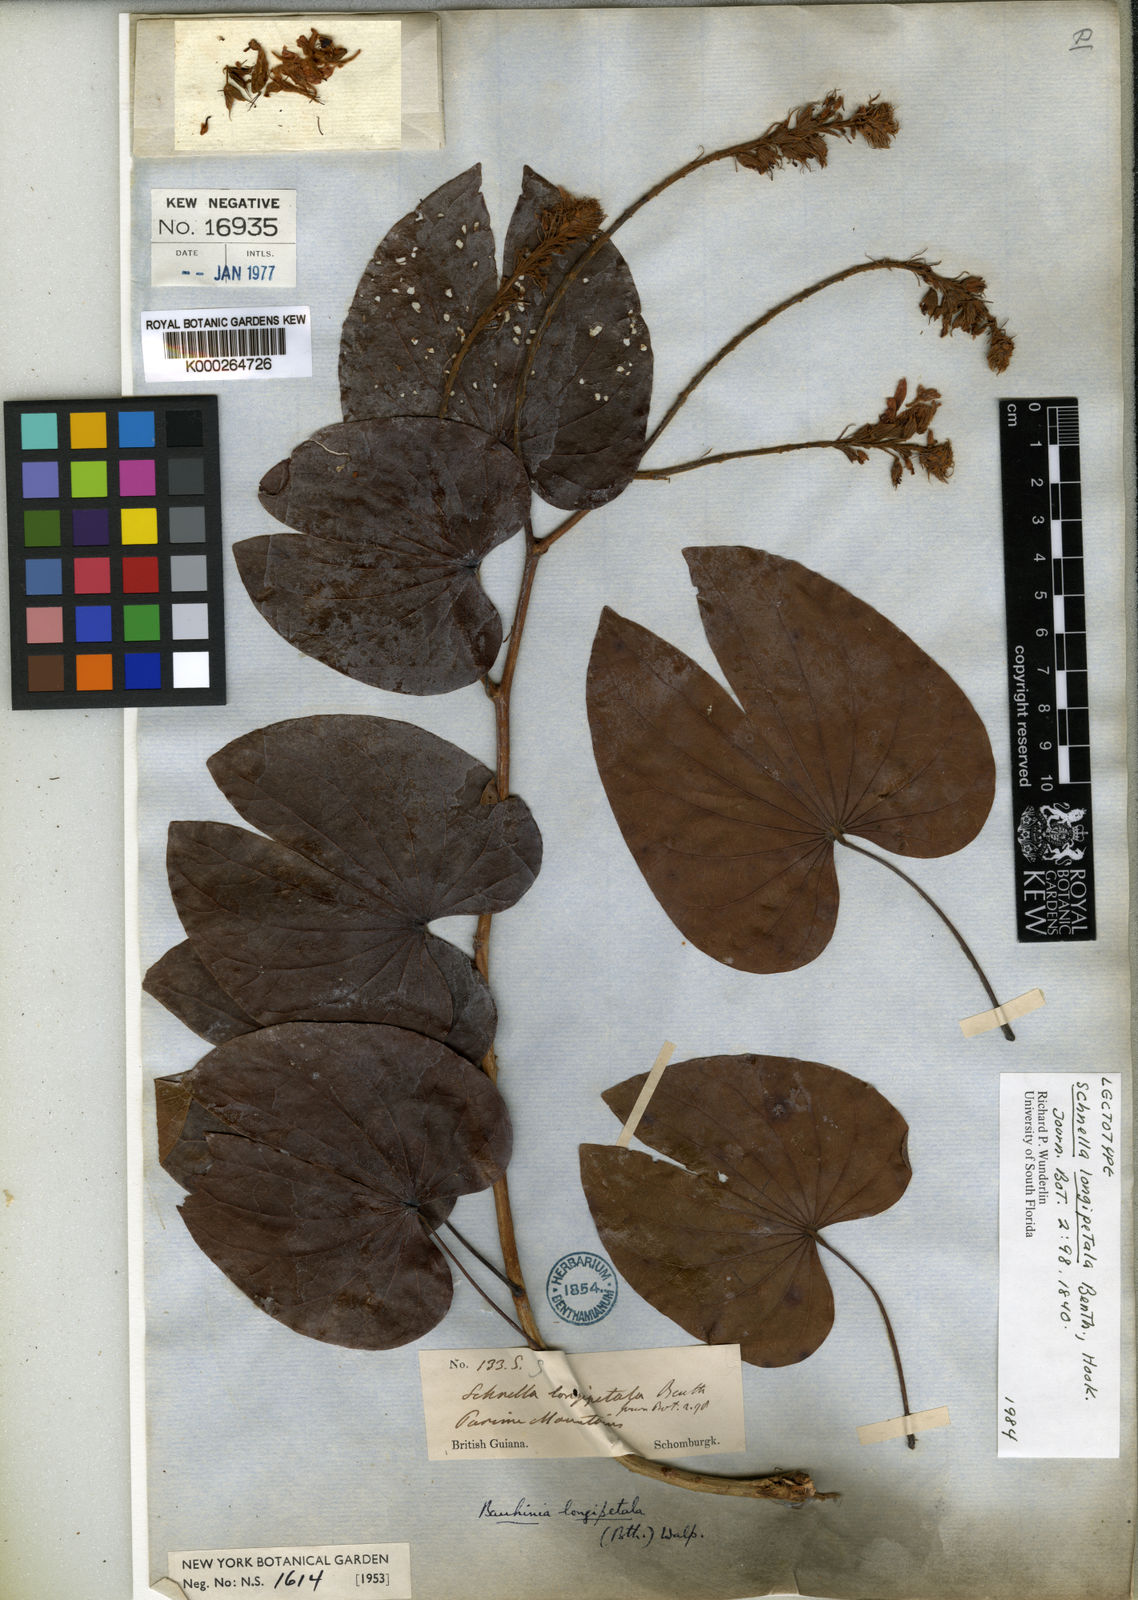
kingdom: Plantae
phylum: Tracheophyta
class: Magnoliopsida
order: Fabales
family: Fabaceae
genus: Schnella
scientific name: Schnella glabra
